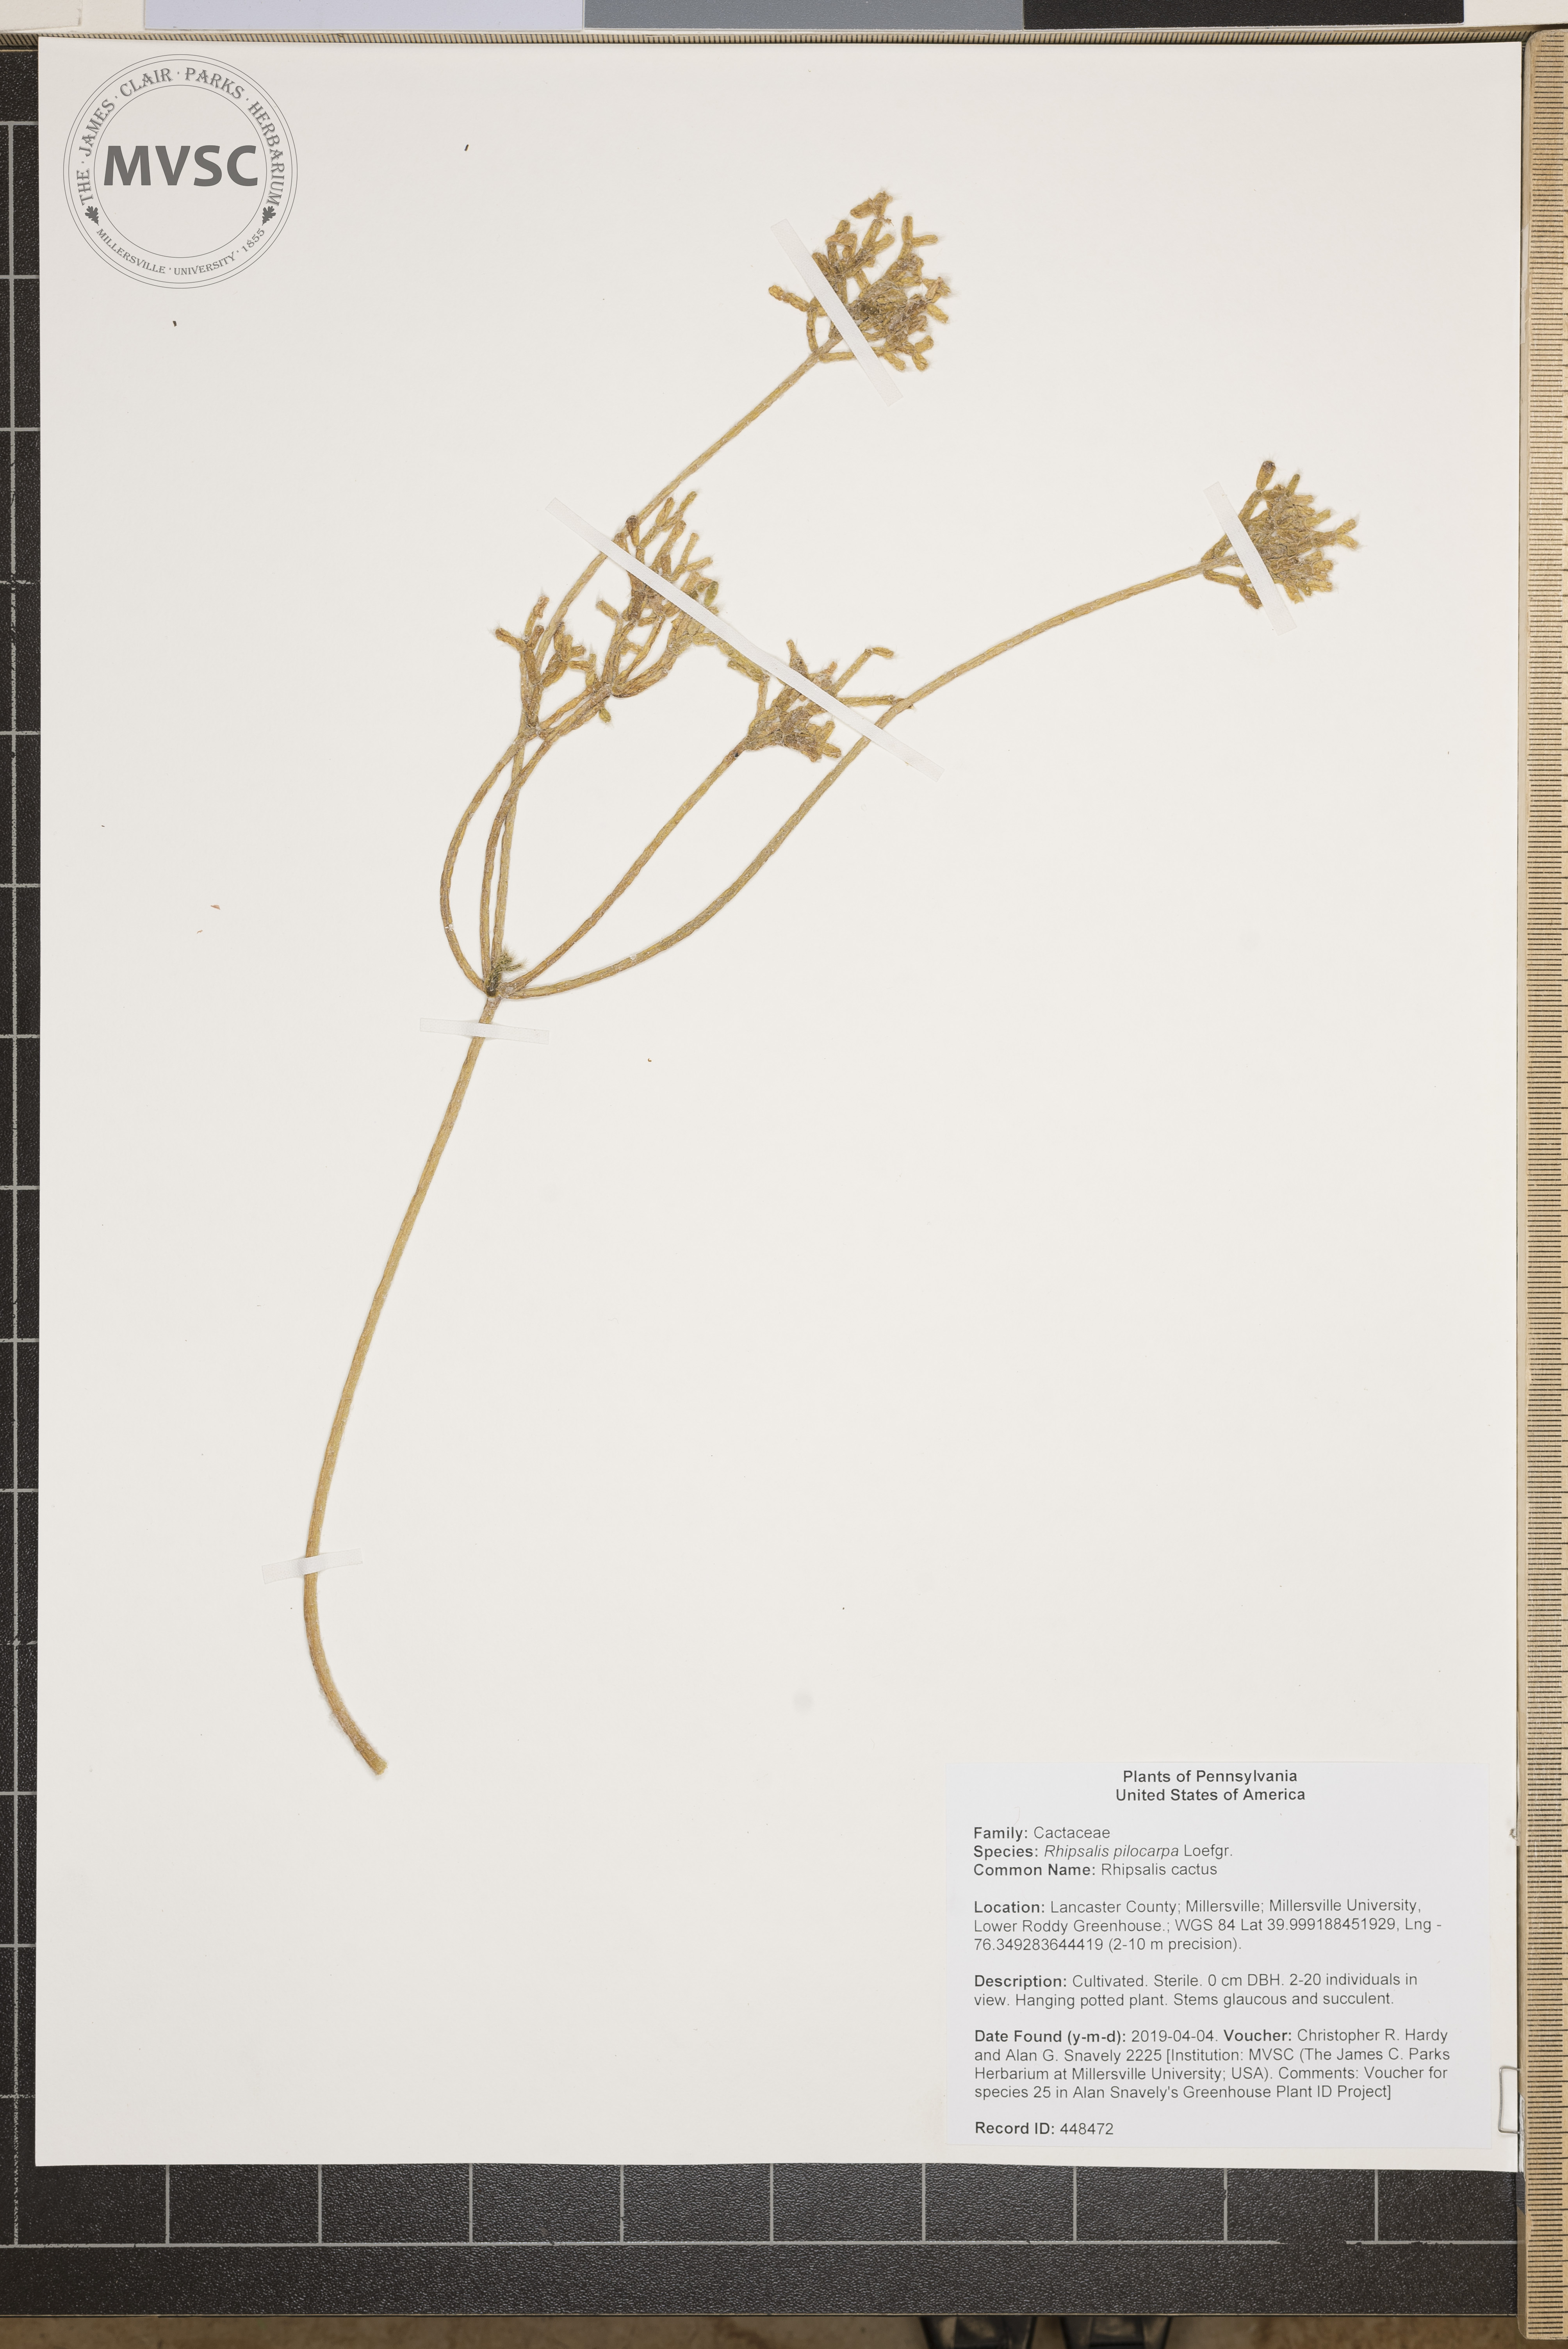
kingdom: Plantae
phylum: Tracheophyta
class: Magnoliopsida
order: Caryophyllales
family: Cactaceae
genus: Rhipsalis
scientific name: Rhipsalis pilocarpa
